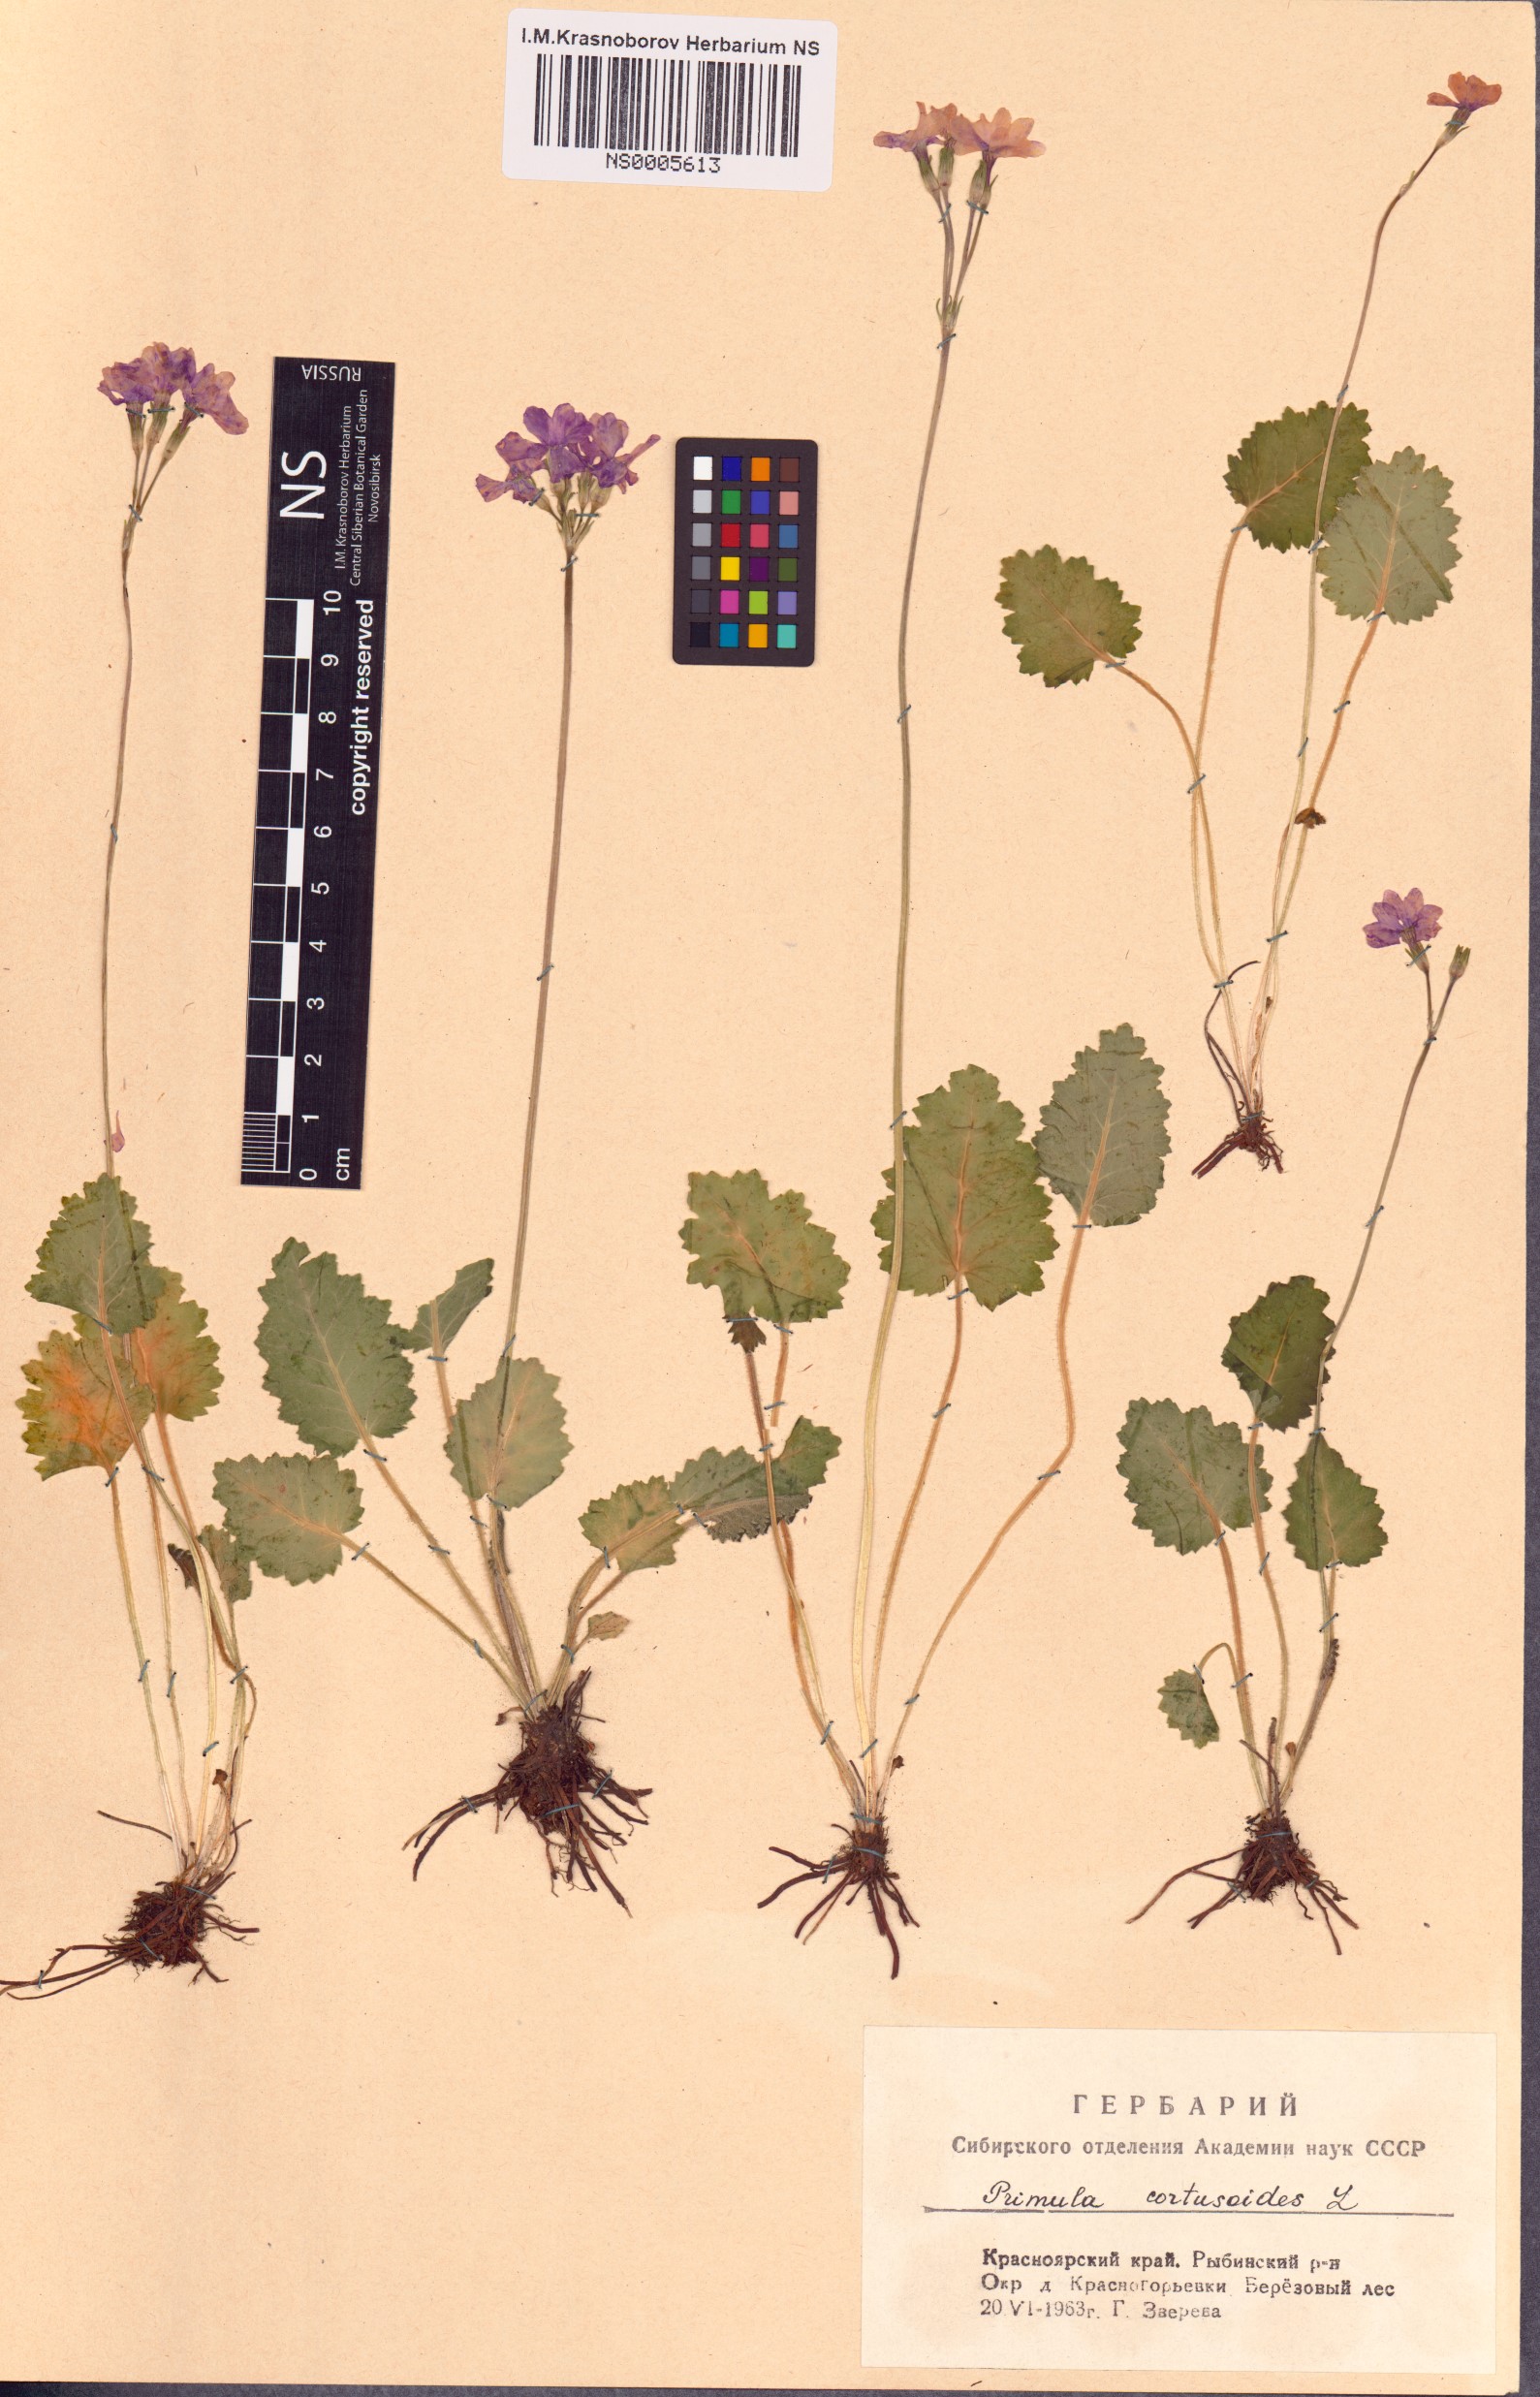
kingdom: Plantae
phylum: Tracheophyta
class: Magnoliopsida
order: Ericales
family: Primulaceae
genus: Primula
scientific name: Primula cortusoides
